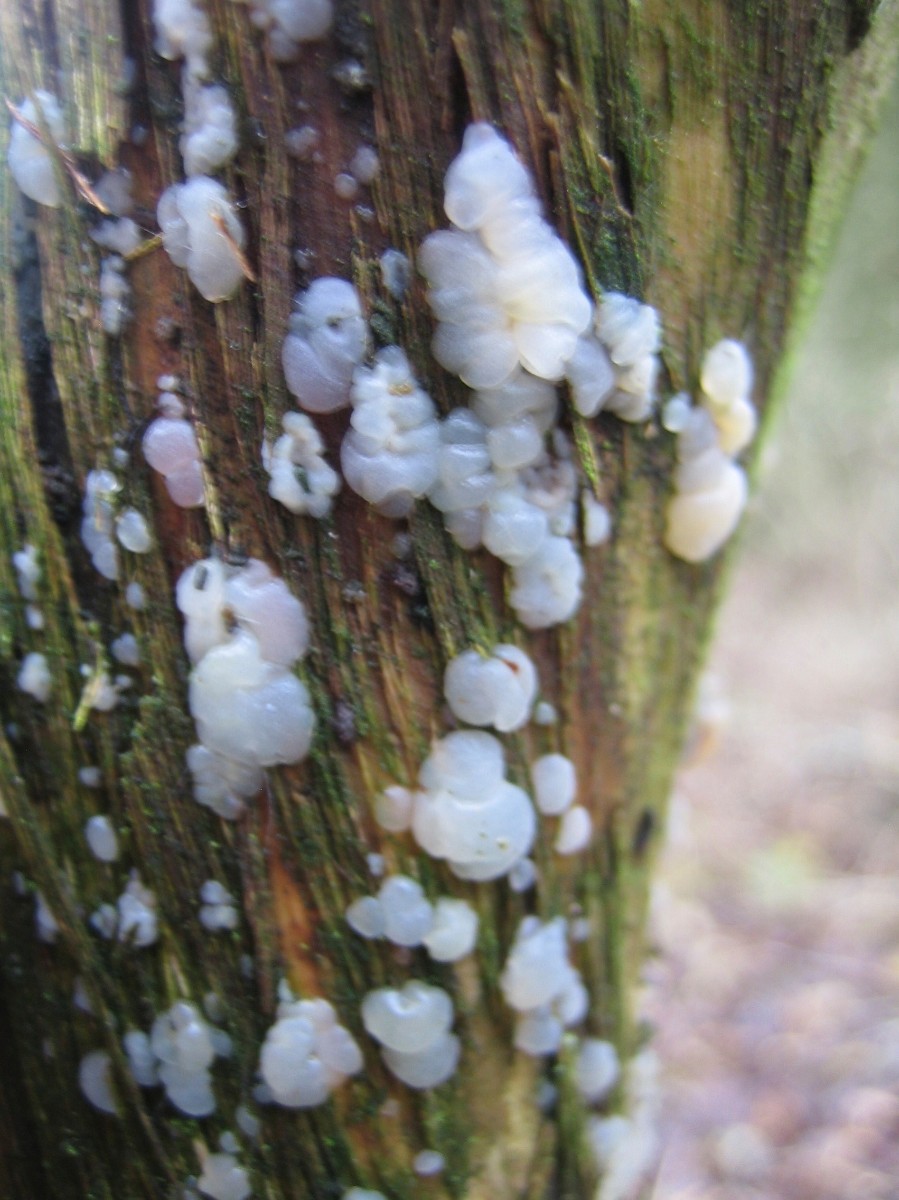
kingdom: Fungi
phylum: Basidiomycota
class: Agaricomycetes
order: Auriculariales
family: Auriculariaceae
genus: Exidia
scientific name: Exidia thuretiana
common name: hvidlig bævretop
